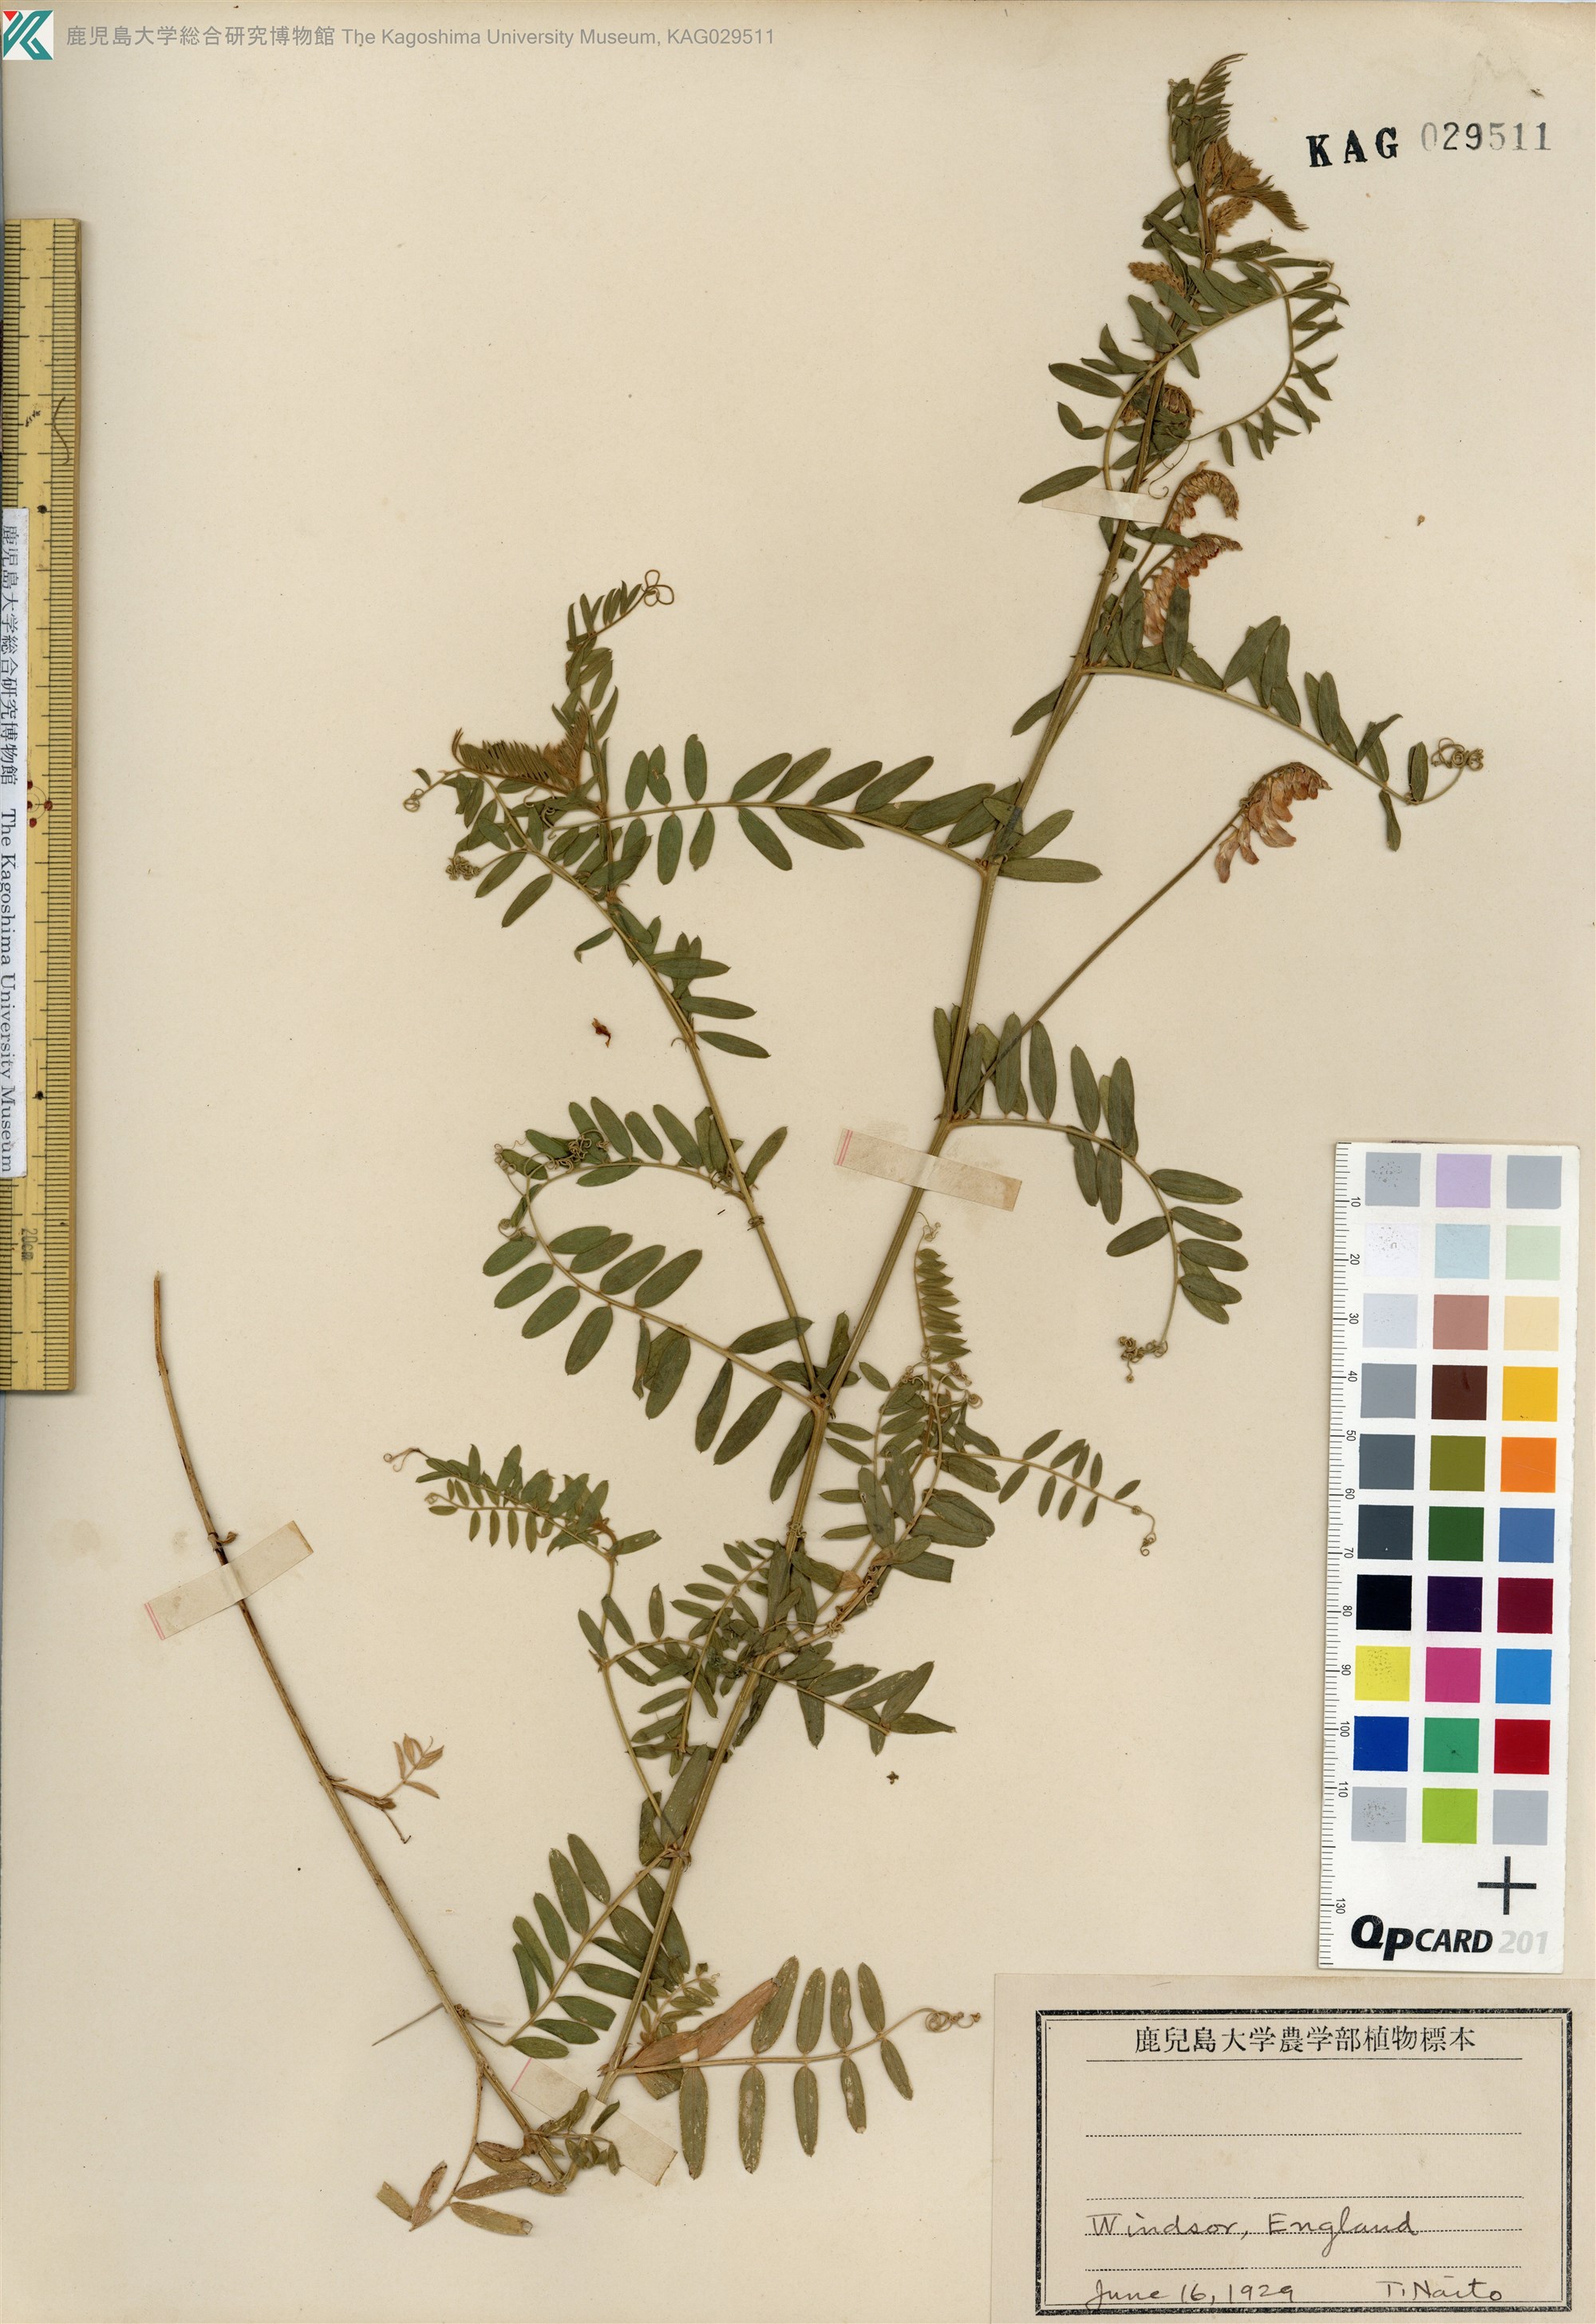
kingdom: Plantae
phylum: Tracheophyta
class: Magnoliopsida
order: Fabales
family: Fabaceae
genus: Vicia
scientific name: Vicia cracca
